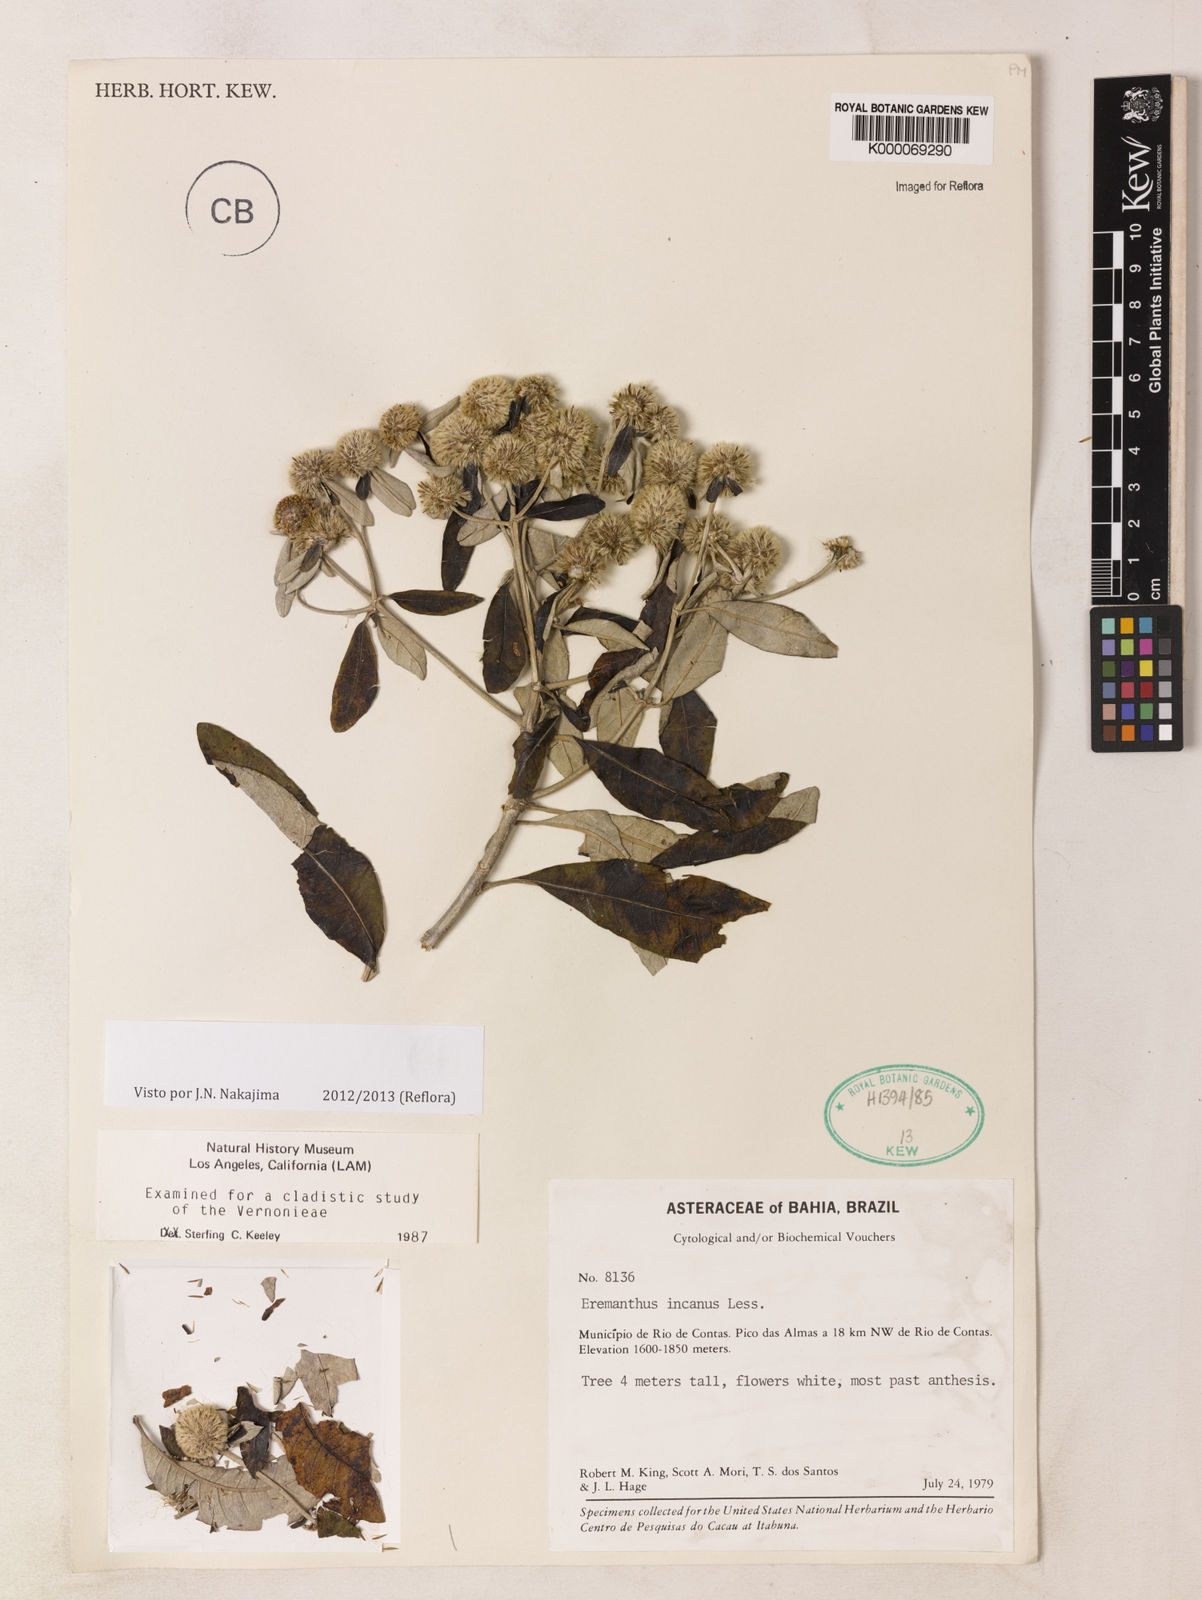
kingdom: Plantae
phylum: Tracheophyta
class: Magnoliopsida
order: Asterales
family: Asteraceae
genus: Eremanthus
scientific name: Eremanthus incanus
